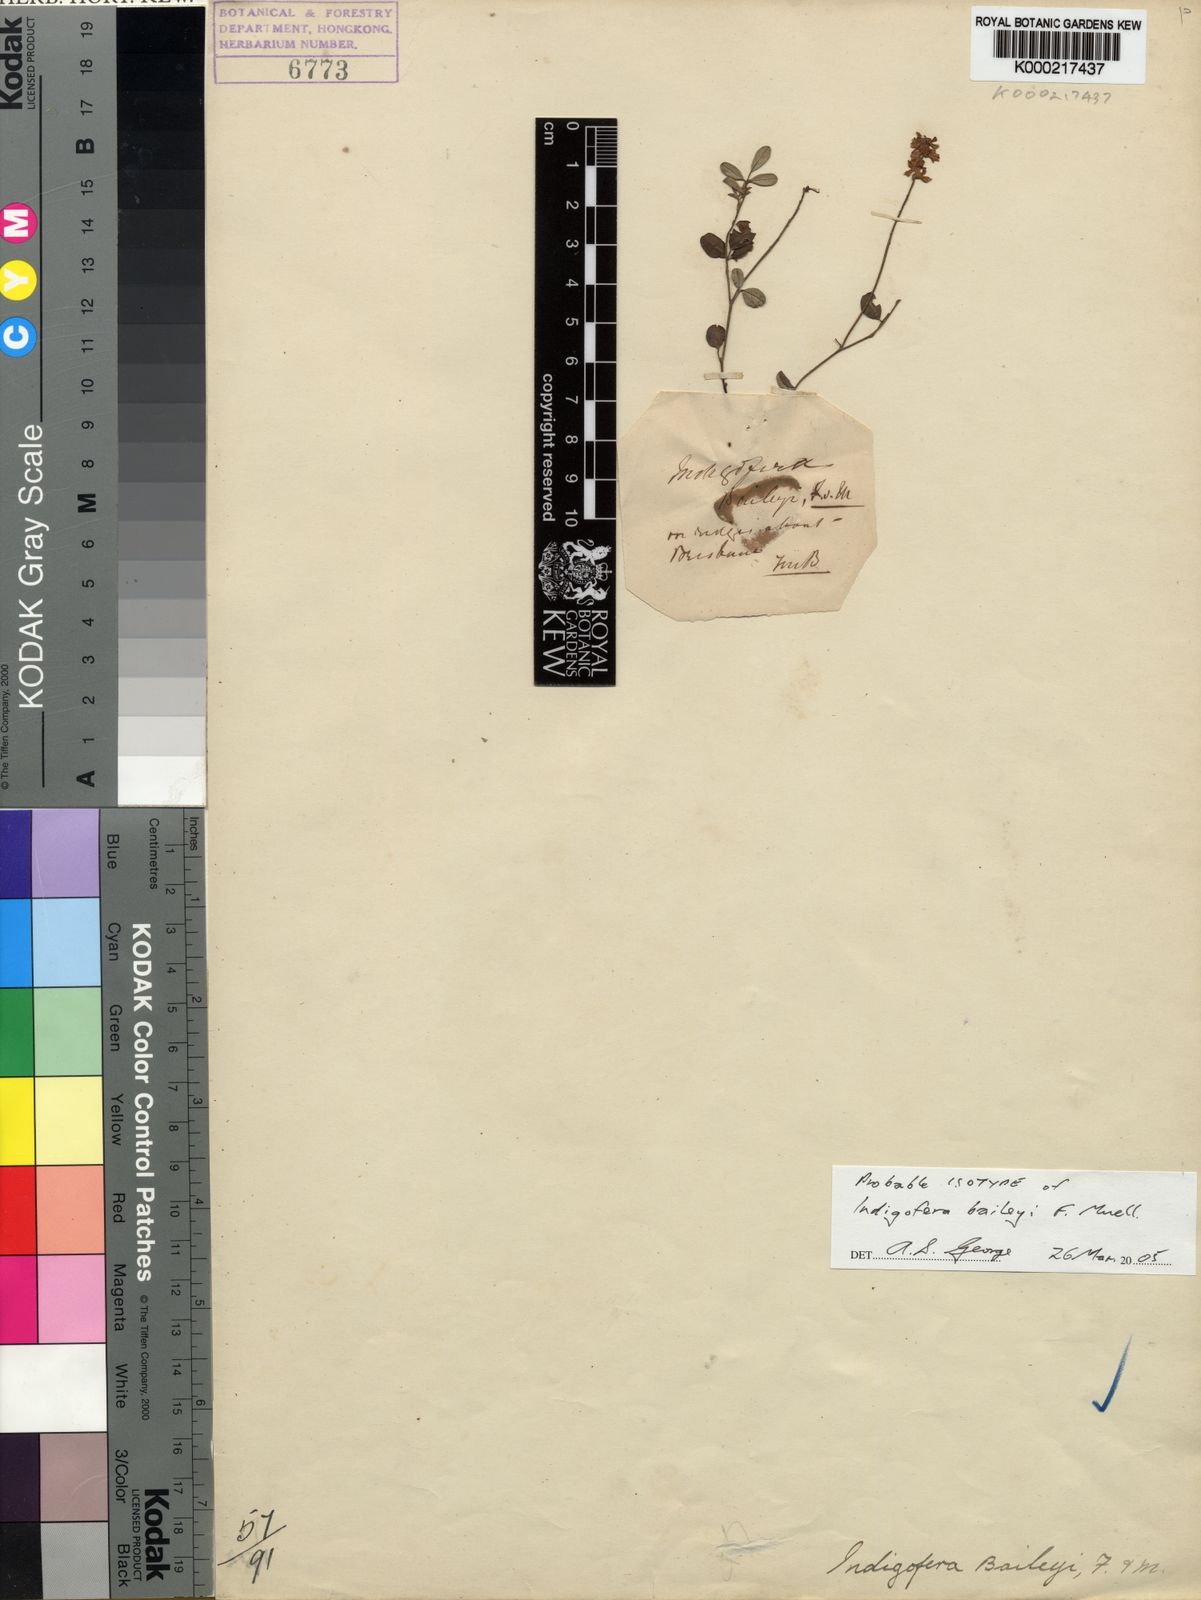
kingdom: Plantae
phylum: Tracheophyta
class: Magnoliopsida
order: Fabales
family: Fabaceae
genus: Indigofera
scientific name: Indigofera baileyi
